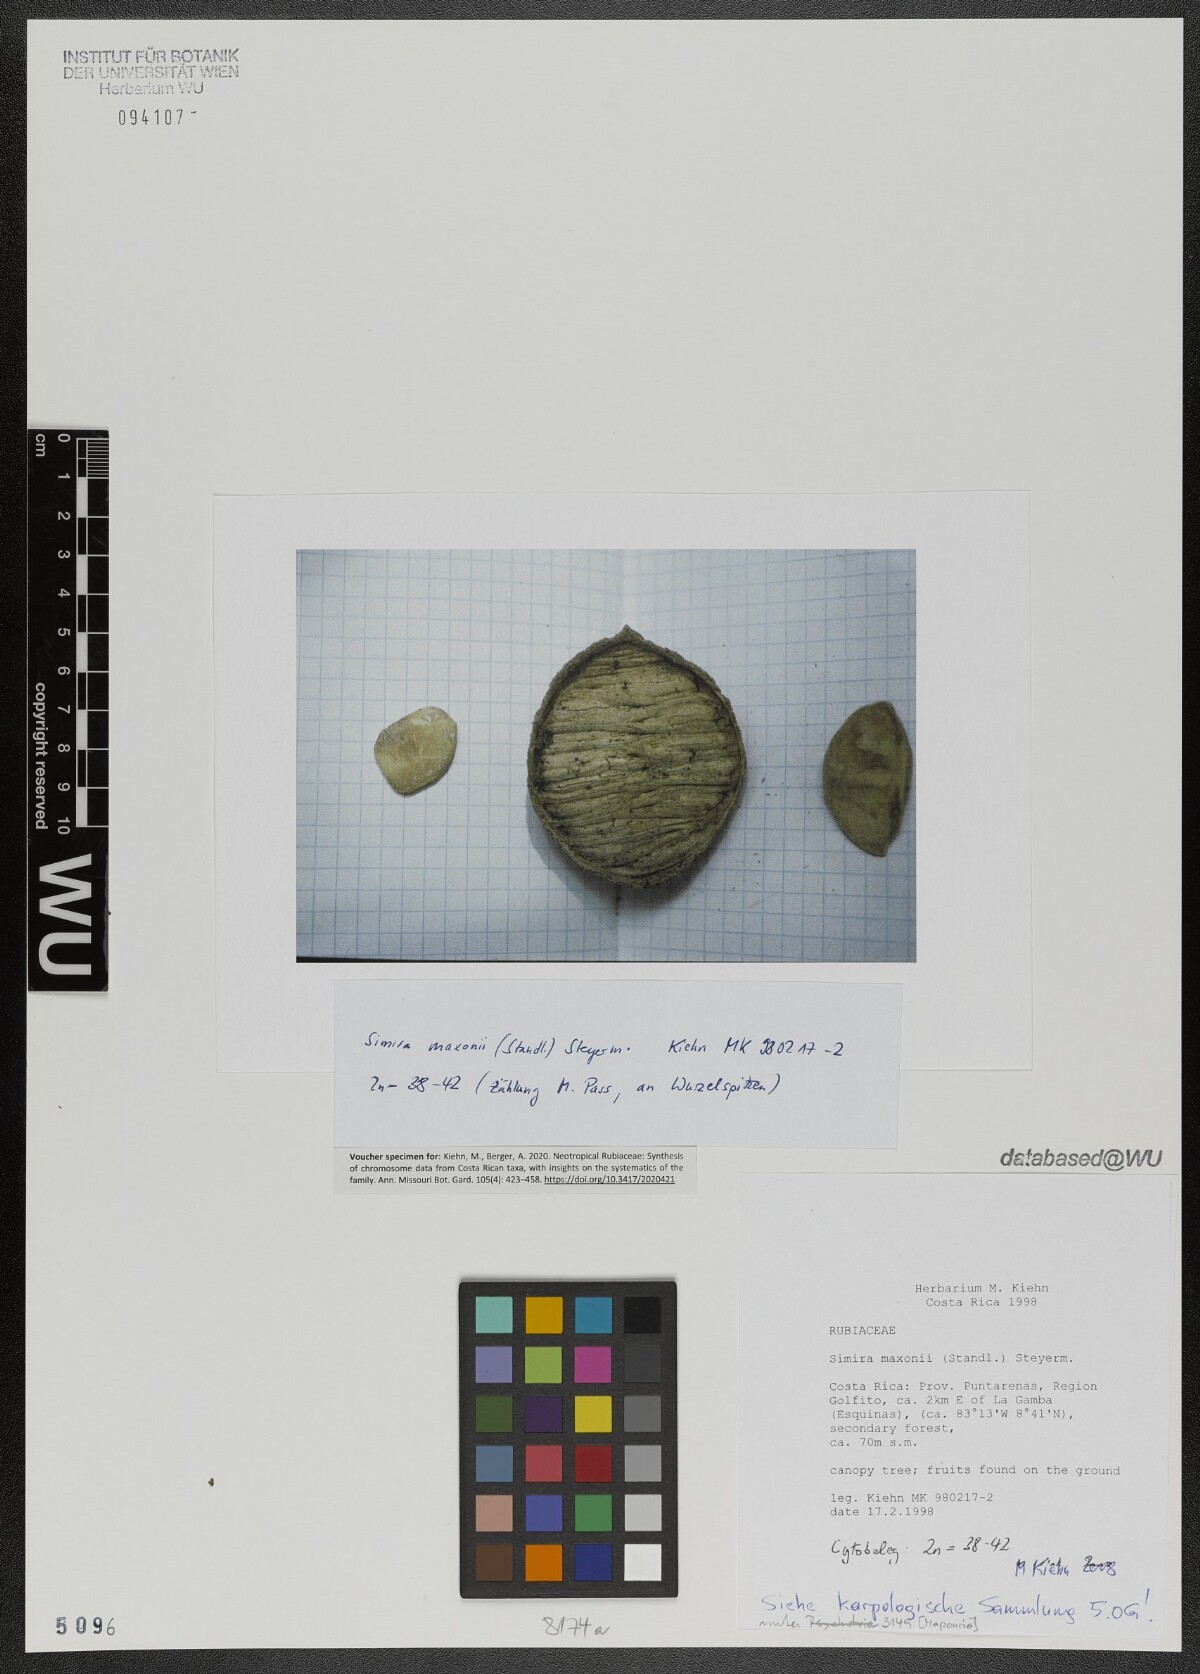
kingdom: Plantae
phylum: Tracheophyta
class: Magnoliopsida
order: Gentianales
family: Rubiaceae
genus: Simira
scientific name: Simira maxonii
